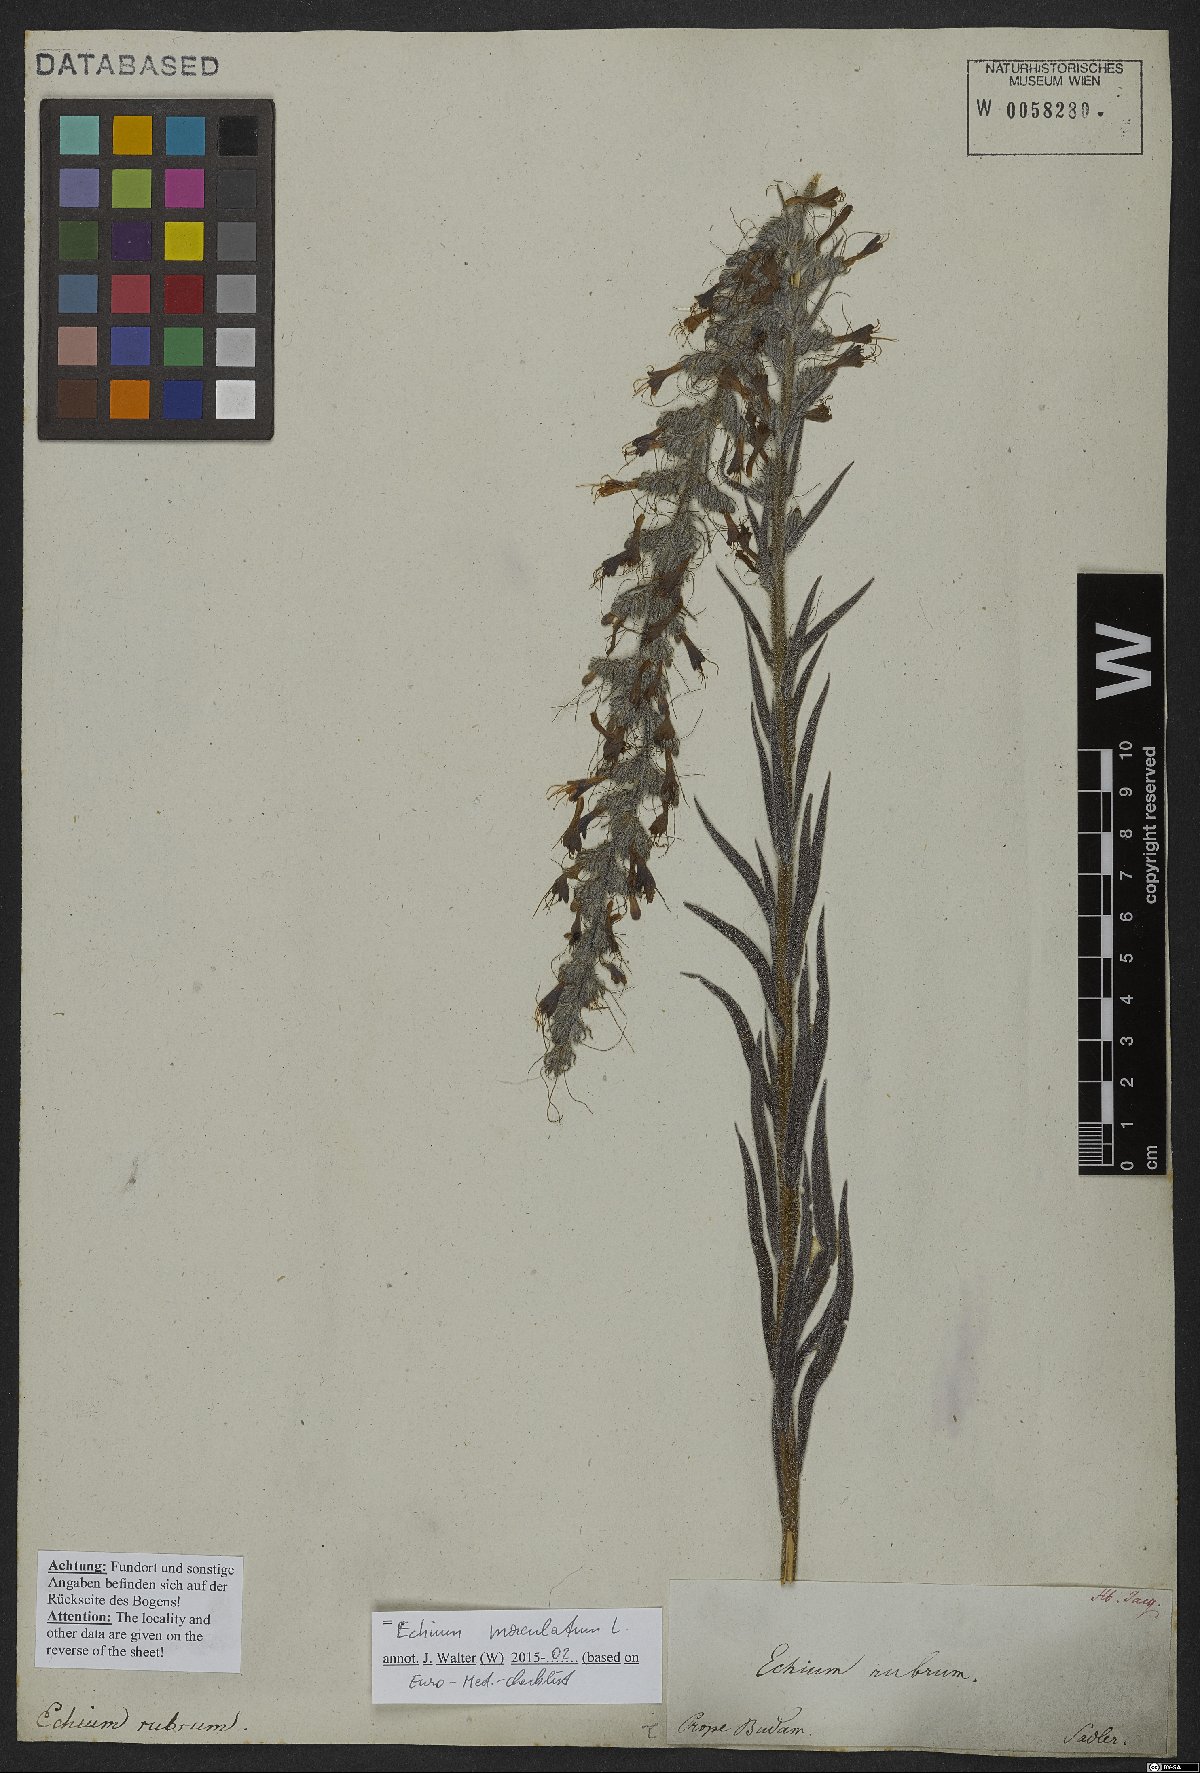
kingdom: Plantae
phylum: Tracheophyta
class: Magnoliopsida
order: Boraginales
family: Boraginaceae
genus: Pontechium
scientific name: Pontechium maculatum
